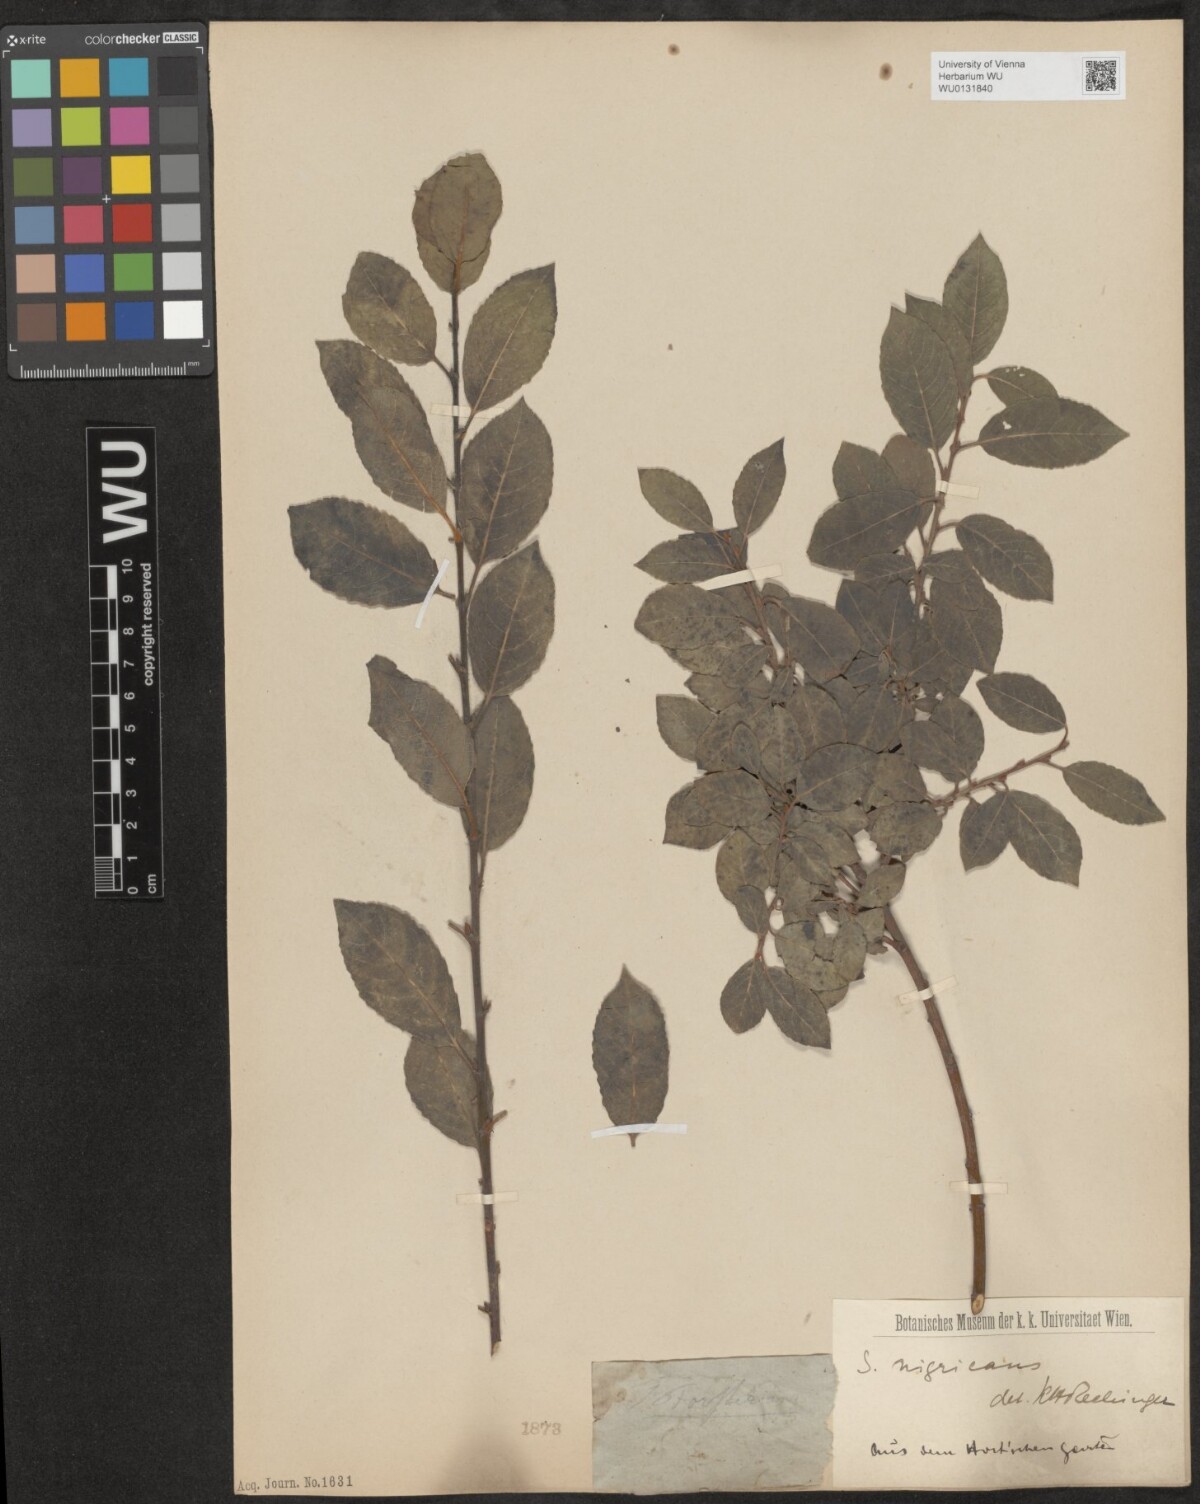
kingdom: Plantae
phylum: Tracheophyta
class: Magnoliopsida
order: Malpighiales
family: Salicaceae
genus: Salix
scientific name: Salix myrsinifolia
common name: Dark-leaved willow
